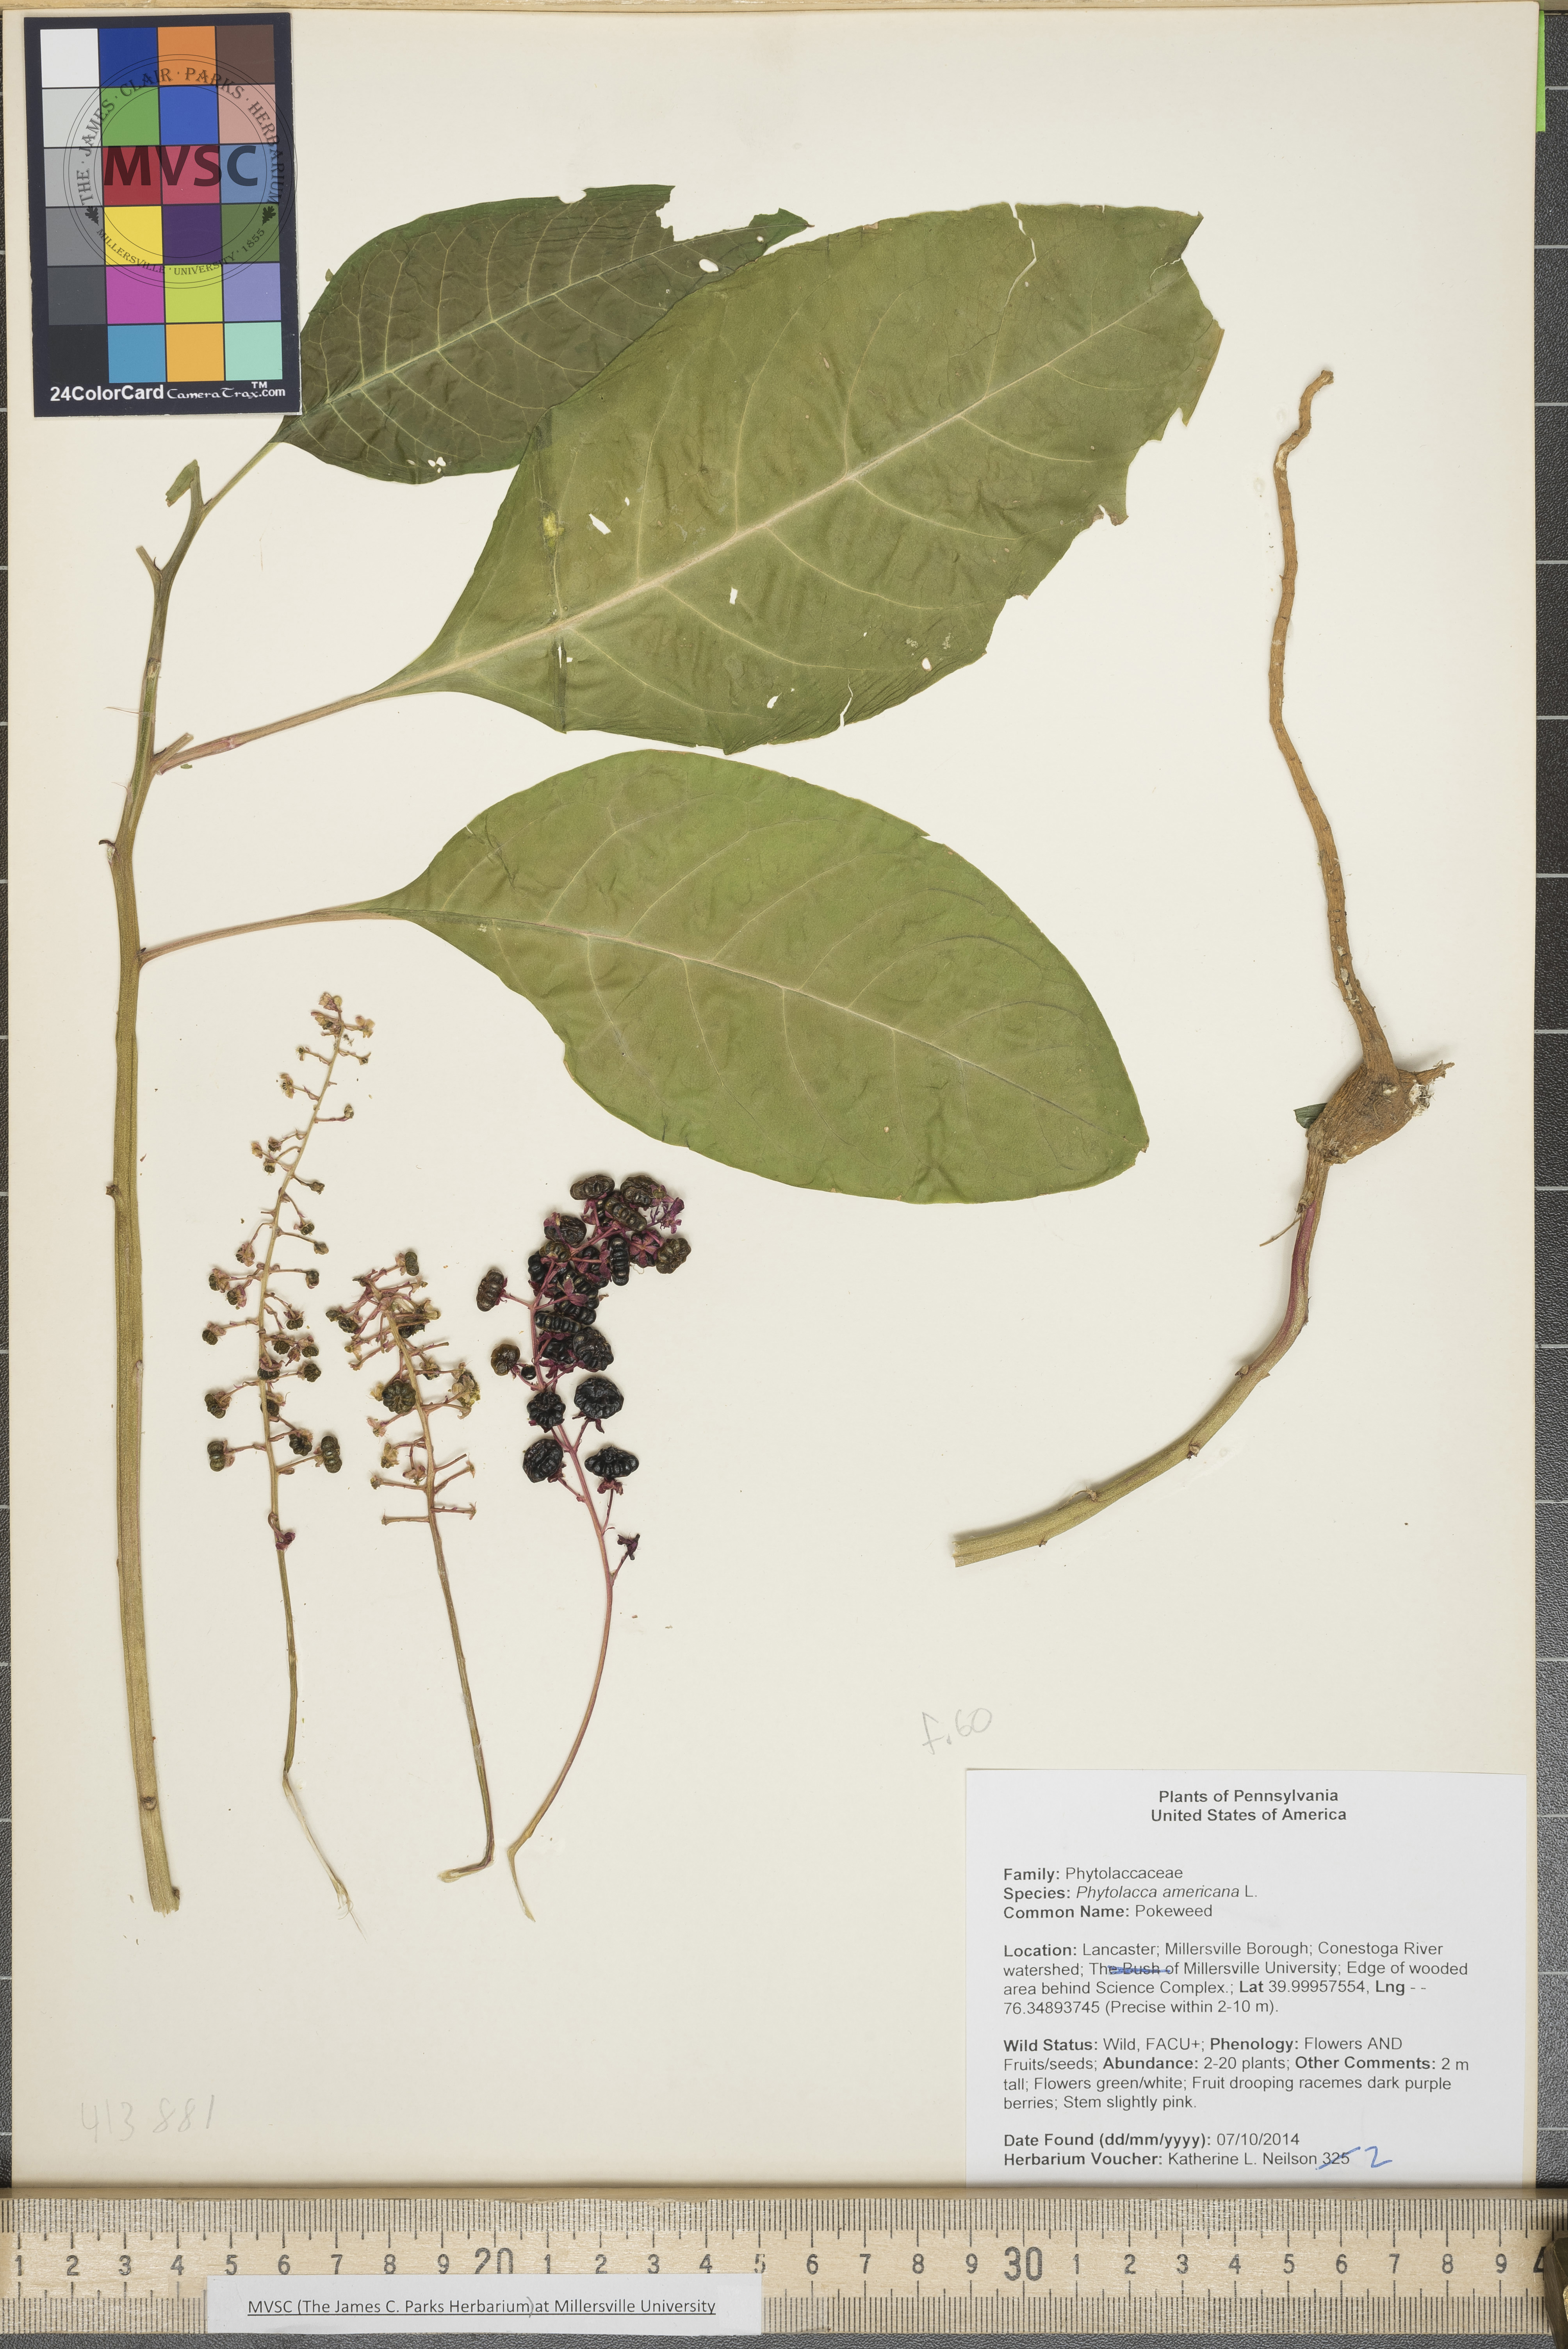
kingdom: Plantae
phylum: Tracheophyta
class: Magnoliopsida
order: Caryophyllales
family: Phytolaccaceae
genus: Phytolacca
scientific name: Phytolacca americana
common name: Pokeweed
